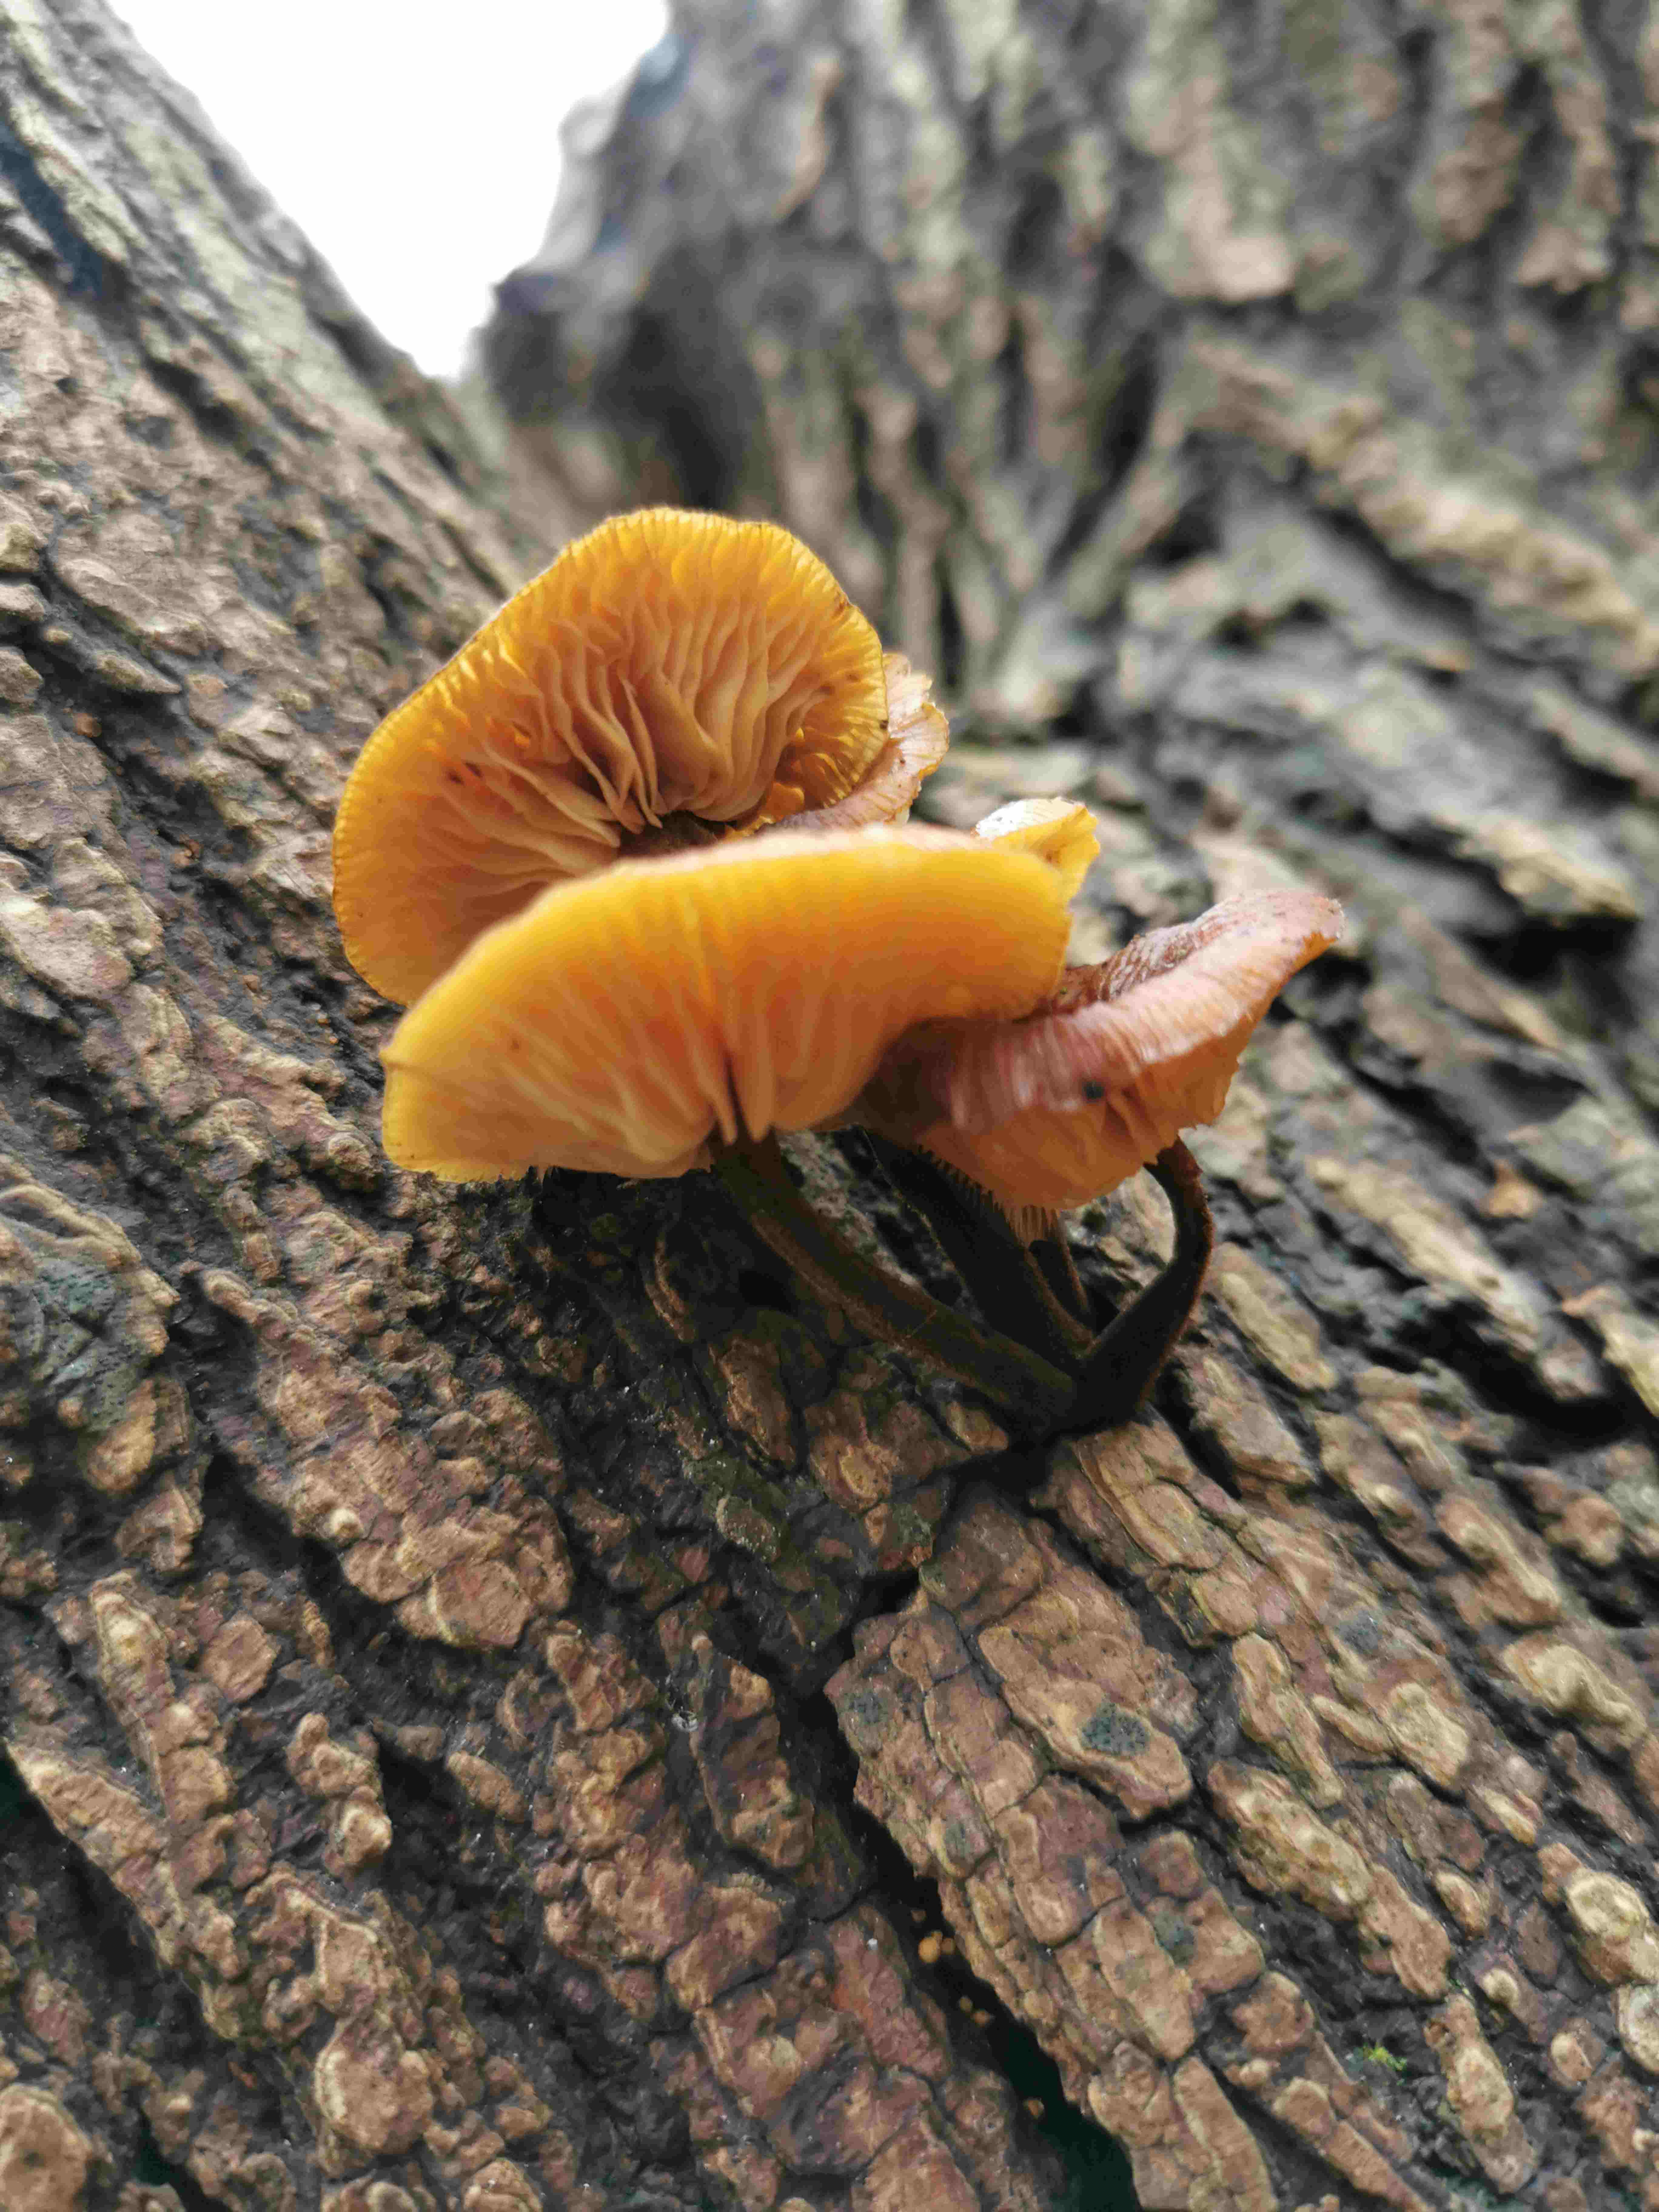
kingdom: Fungi
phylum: Basidiomycota
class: Agaricomycetes
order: Agaricales
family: Physalacriaceae
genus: Flammulina
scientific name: Flammulina
